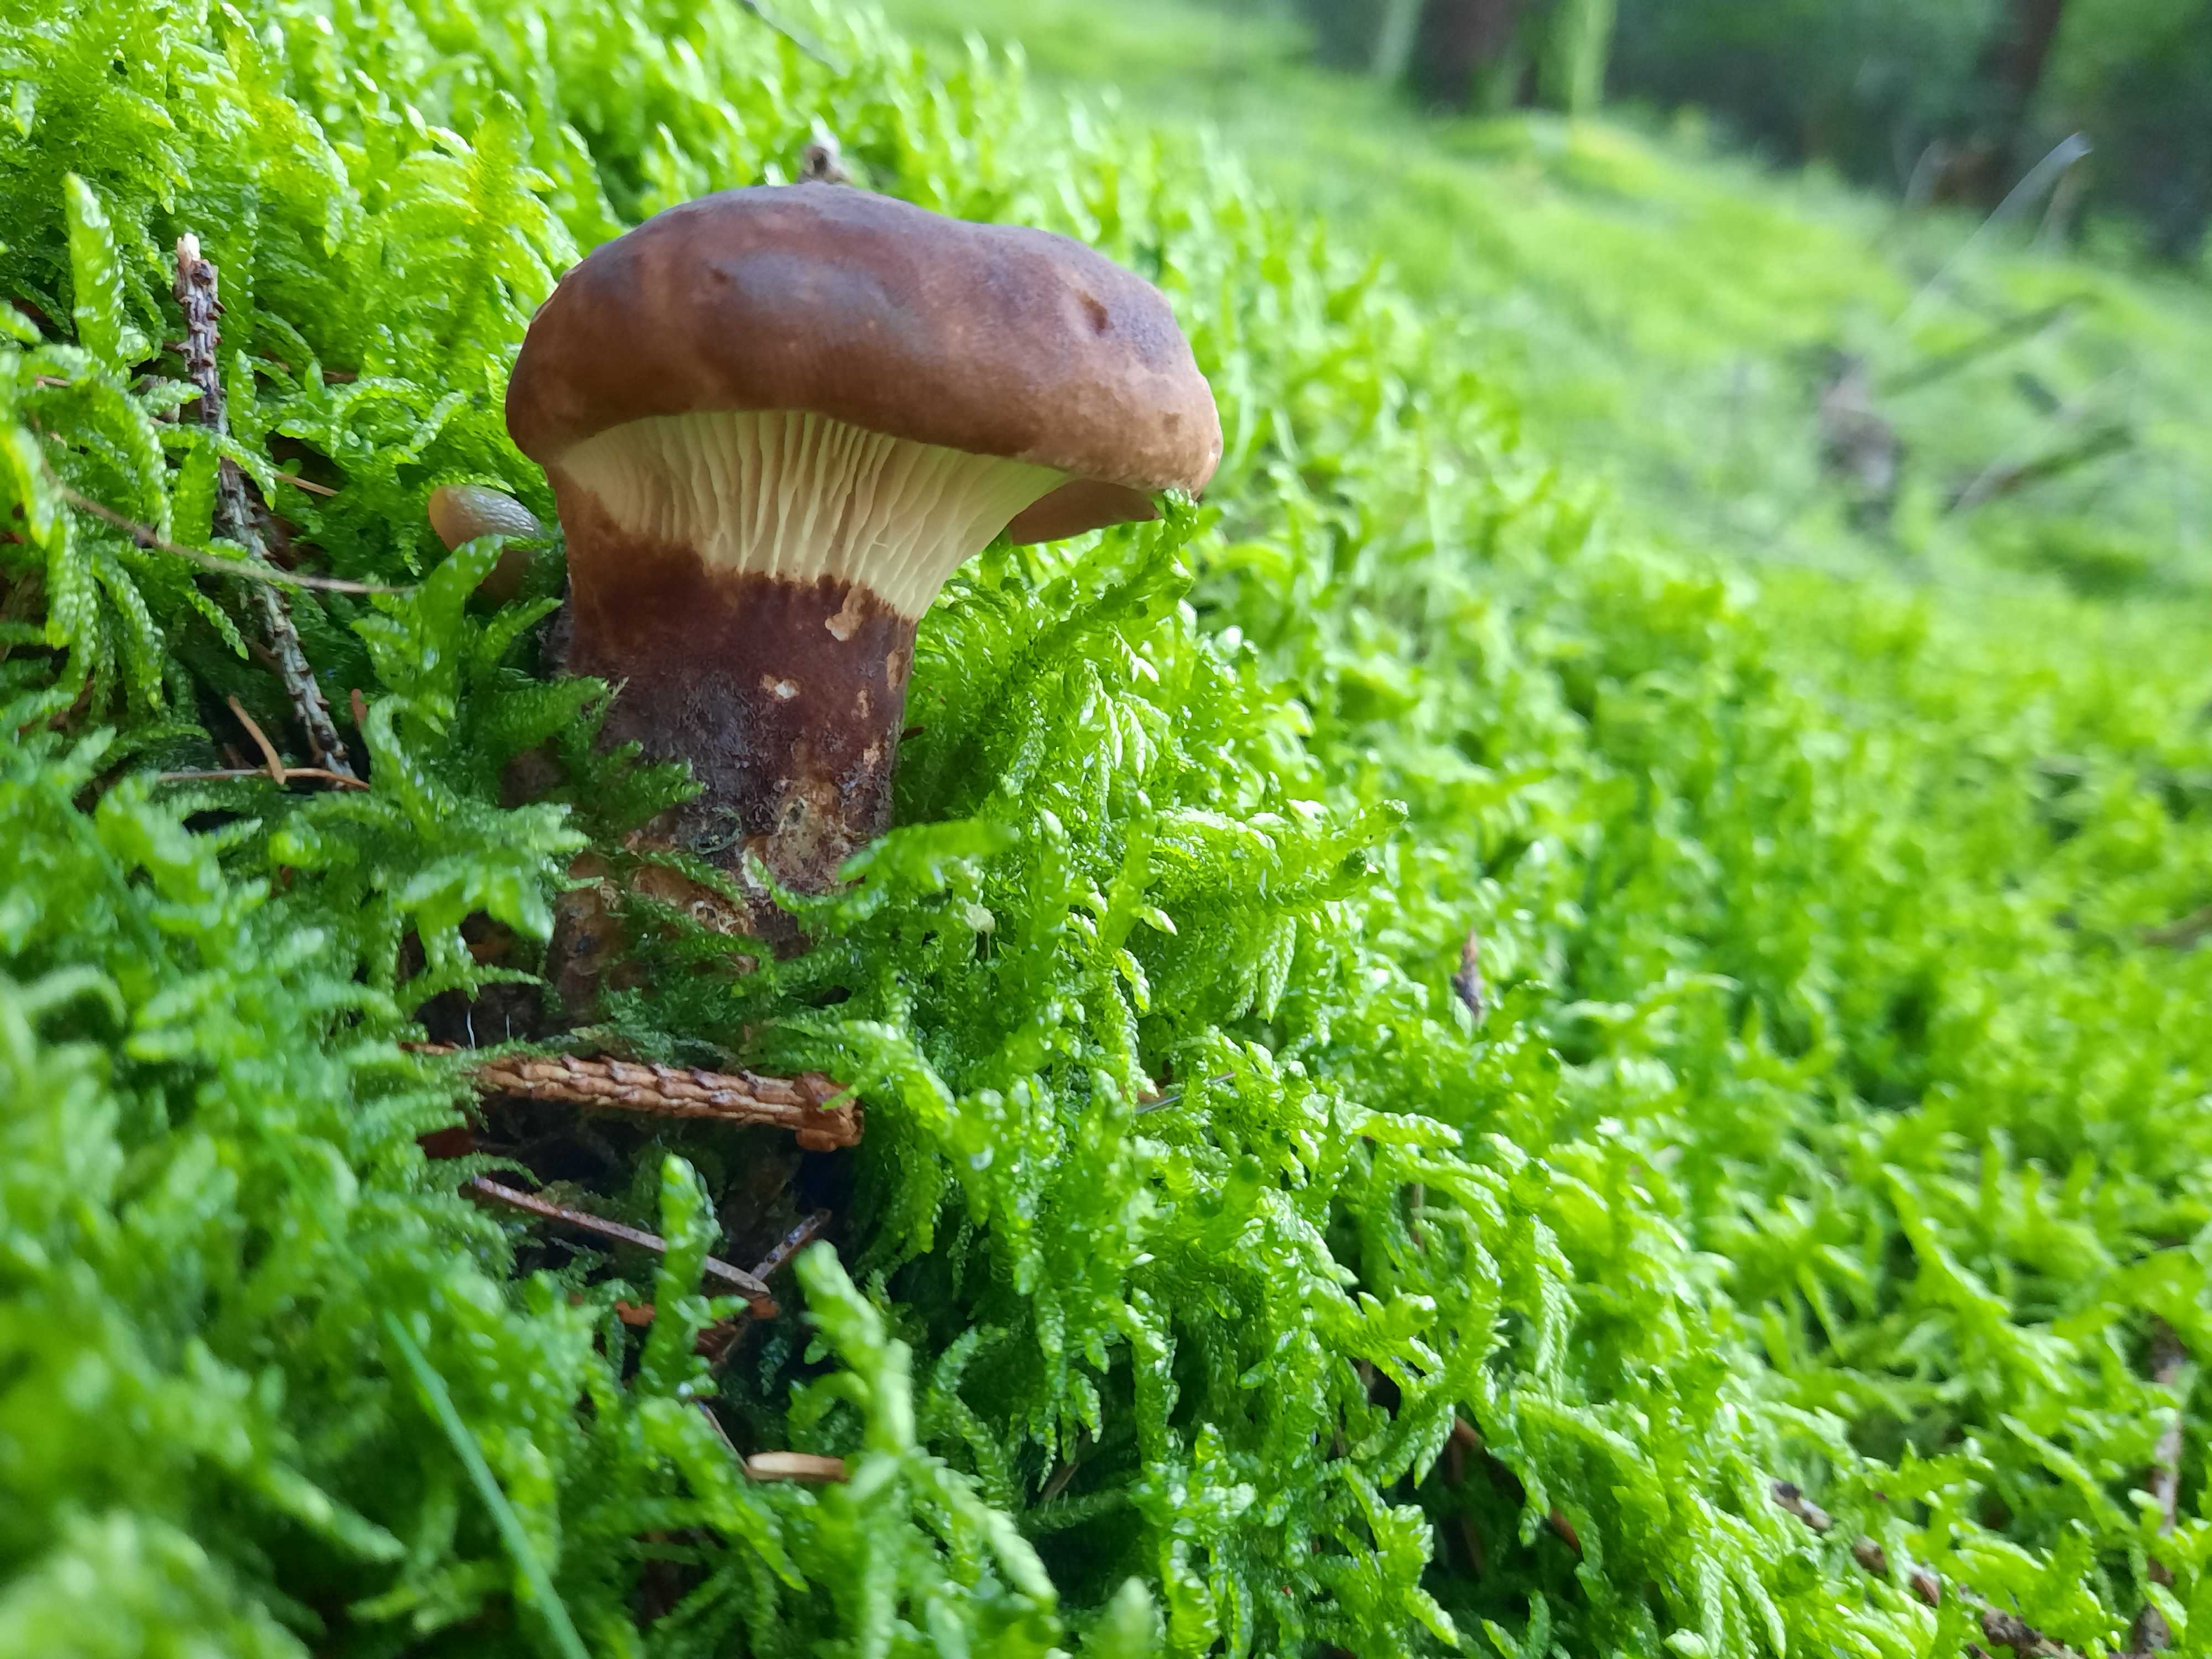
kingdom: Fungi
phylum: Basidiomycota
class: Agaricomycetes
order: Boletales
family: Tapinellaceae
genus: Tapinella
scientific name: Tapinella atrotomentosa
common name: sortfiltet viftesvamp
